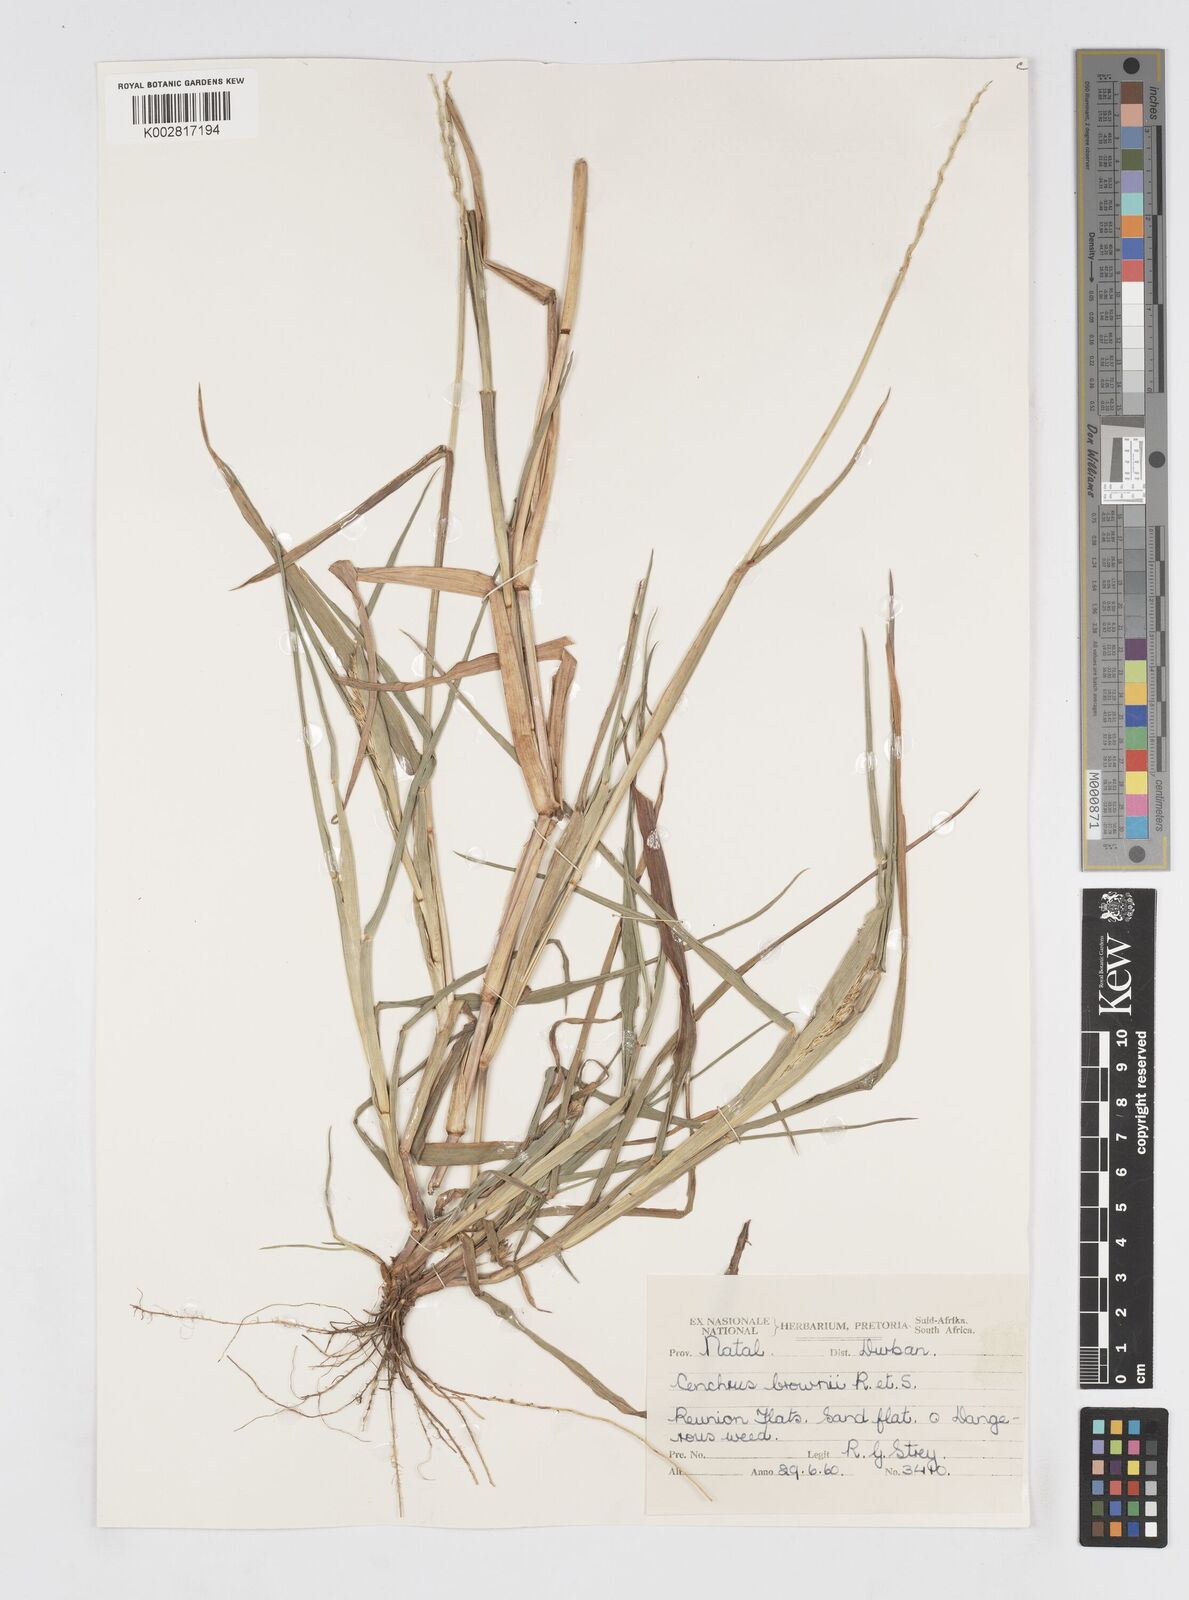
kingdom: Plantae
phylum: Tracheophyta
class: Liliopsida
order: Poales
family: Poaceae
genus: Cenchrus
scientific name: Cenchrus brownii
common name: Slim-bristle sandbur
